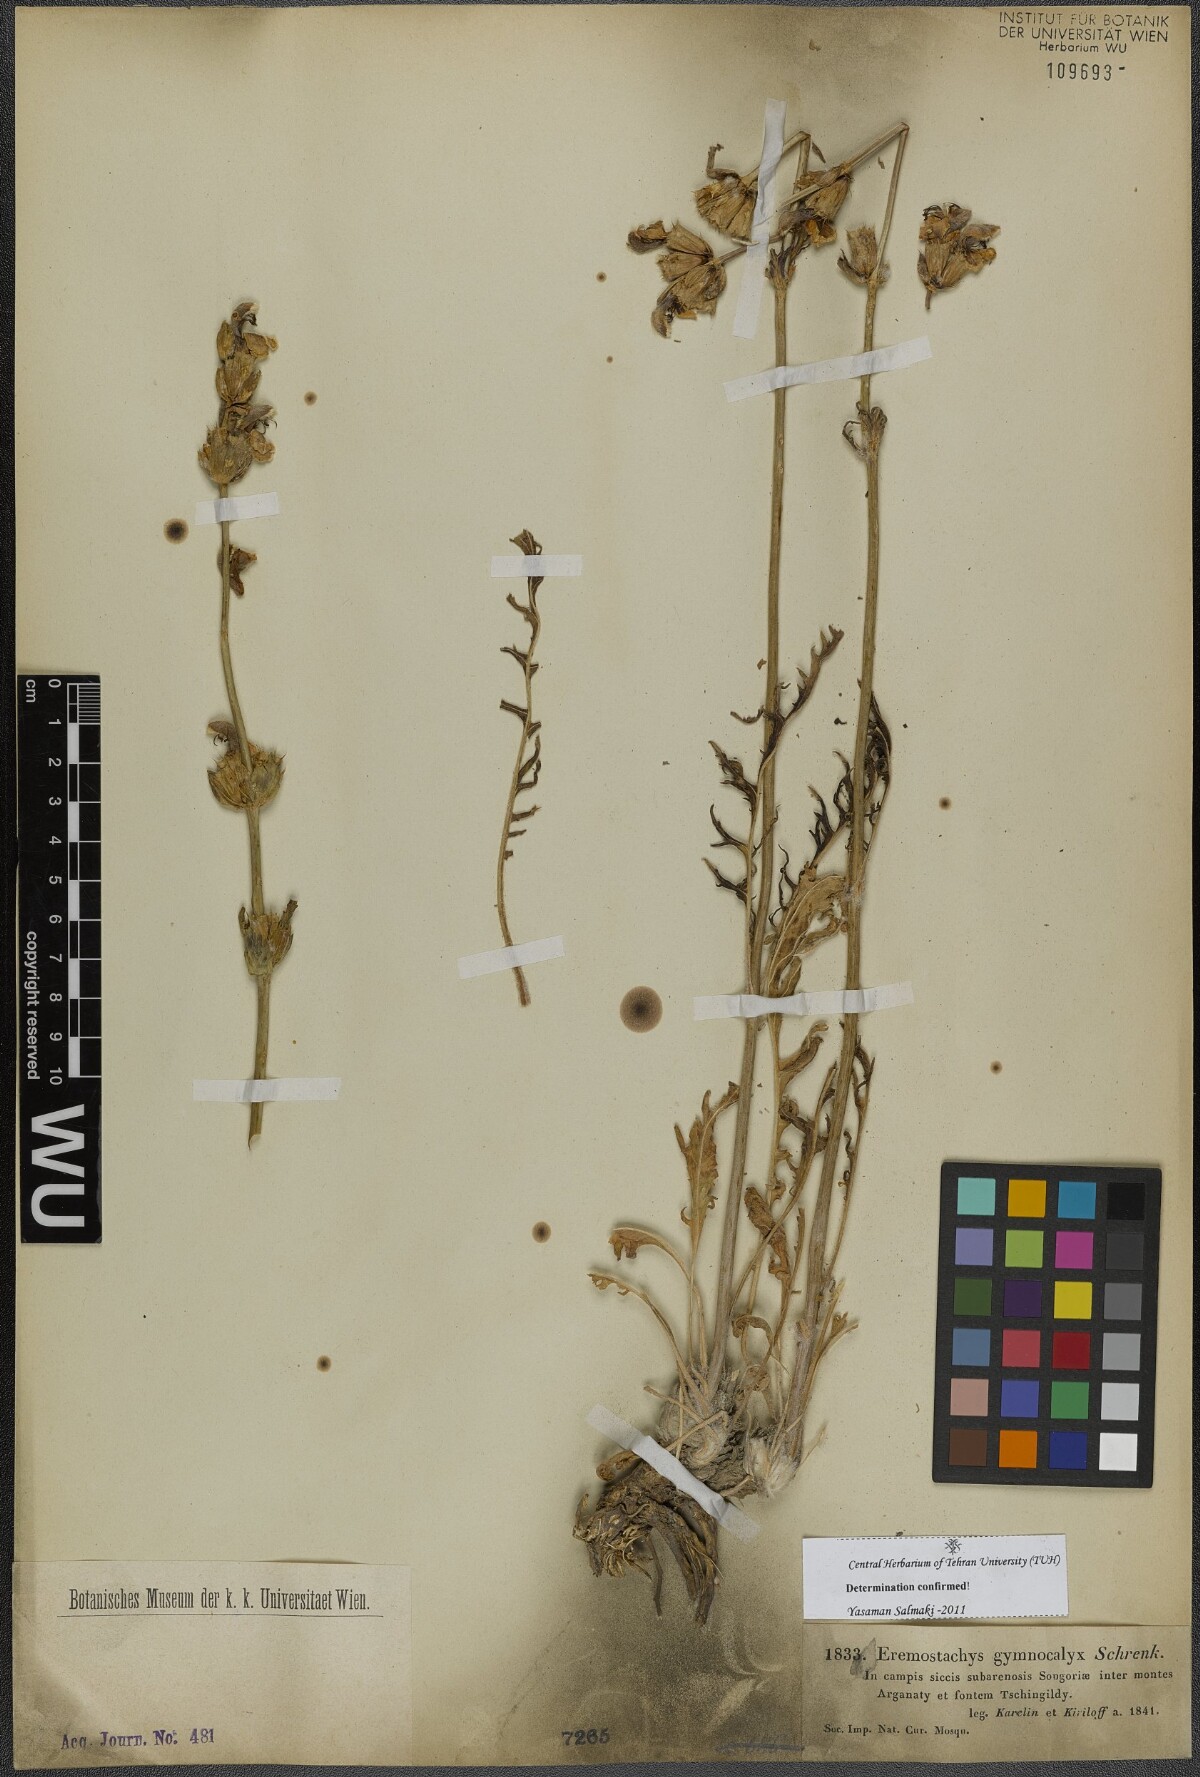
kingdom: Plantae
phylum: Tracheophyta
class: Magnoliopsida
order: Lamiales
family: Lamiaceae
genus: Phlomoides
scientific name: Phlomoides gymnocalyx
